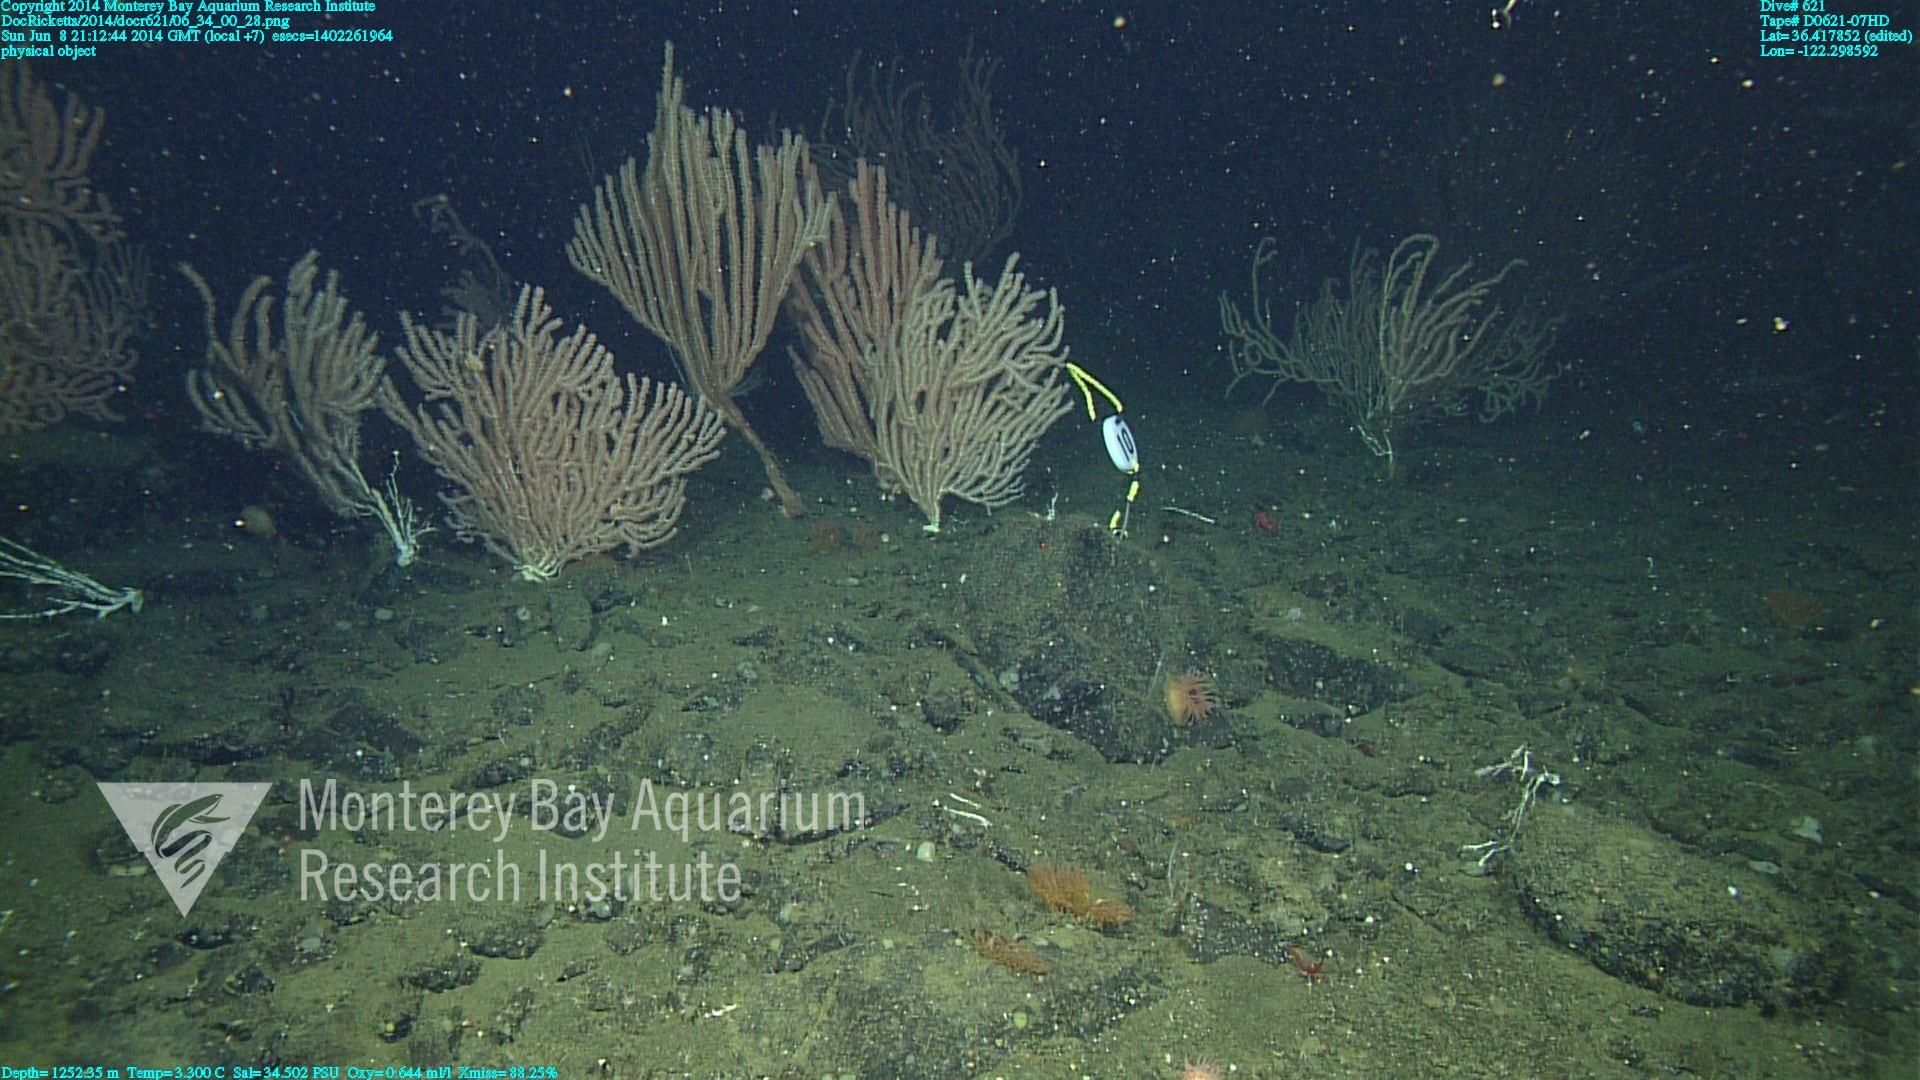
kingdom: Animalia
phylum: Cnidaria
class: Anthozoa
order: Scleralcyonacea
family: Keratoisididae
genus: Keratoisis
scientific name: Keratoisis
